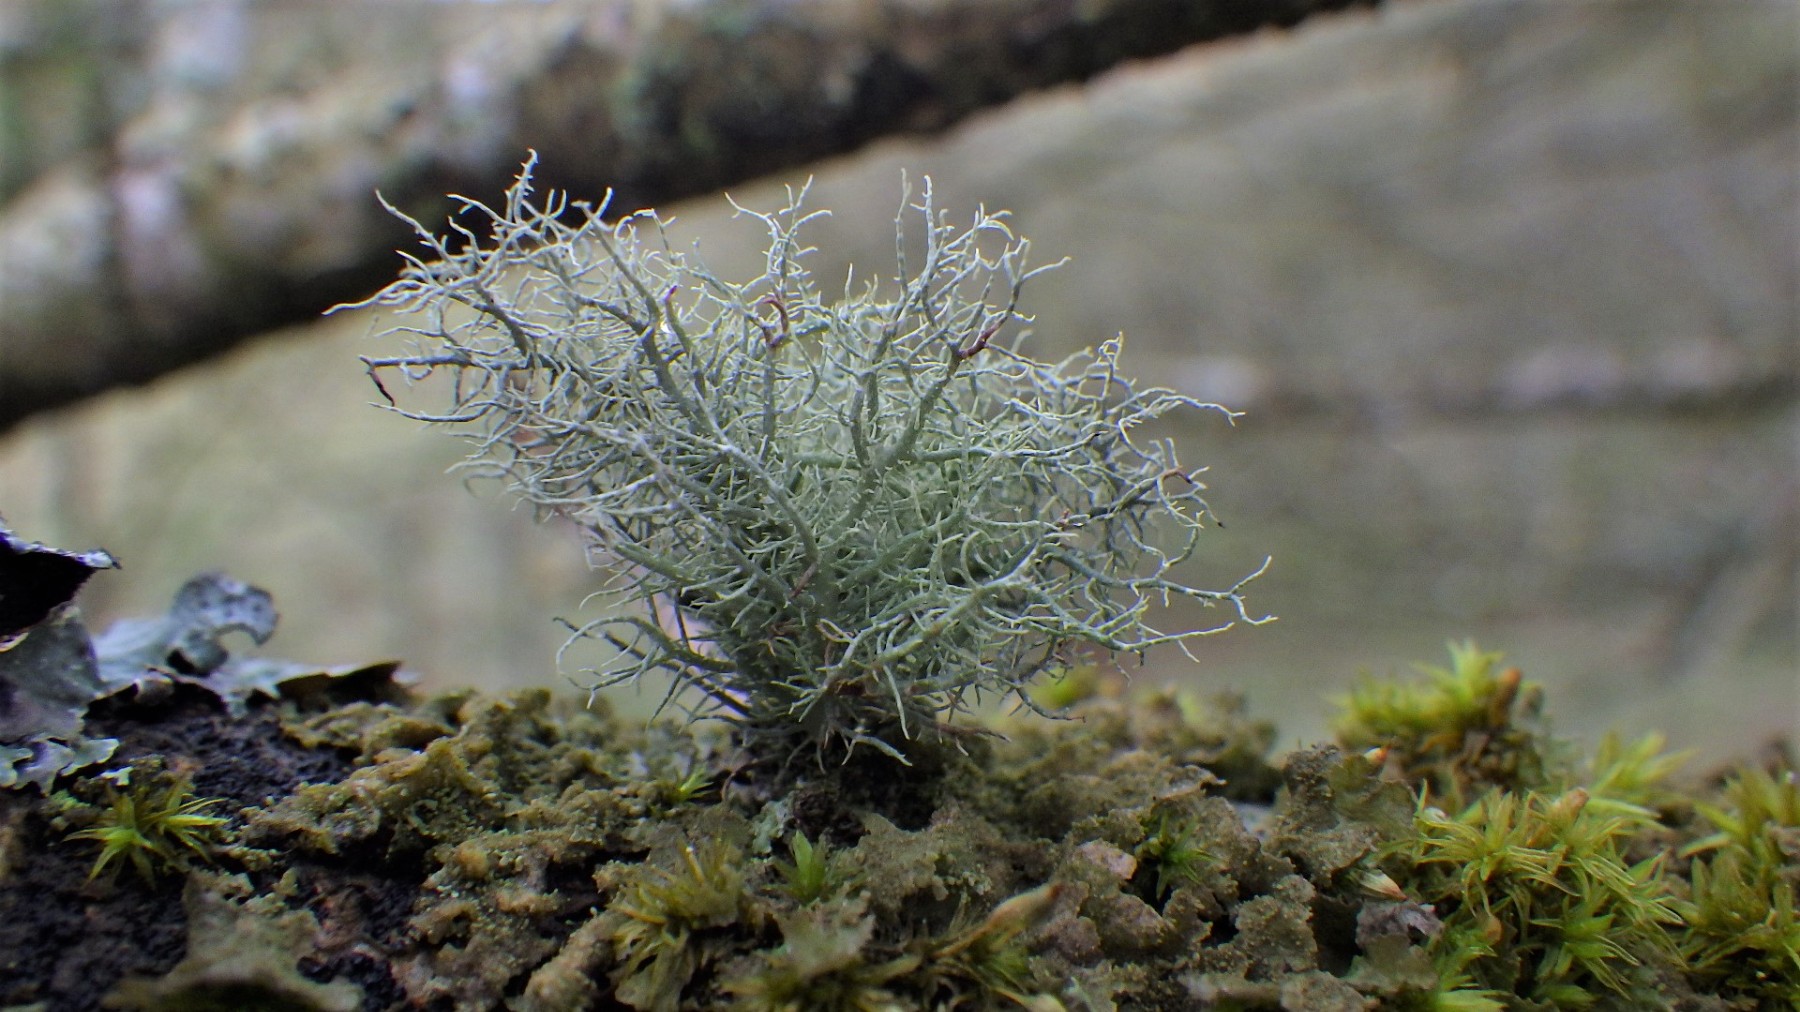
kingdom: Fungi
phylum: Ascomycota
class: Lecanoromycetes
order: Lecanorales
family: Parmeliaceae
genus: Usnea
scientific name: Usnea subfloridana
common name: busket skæglav
